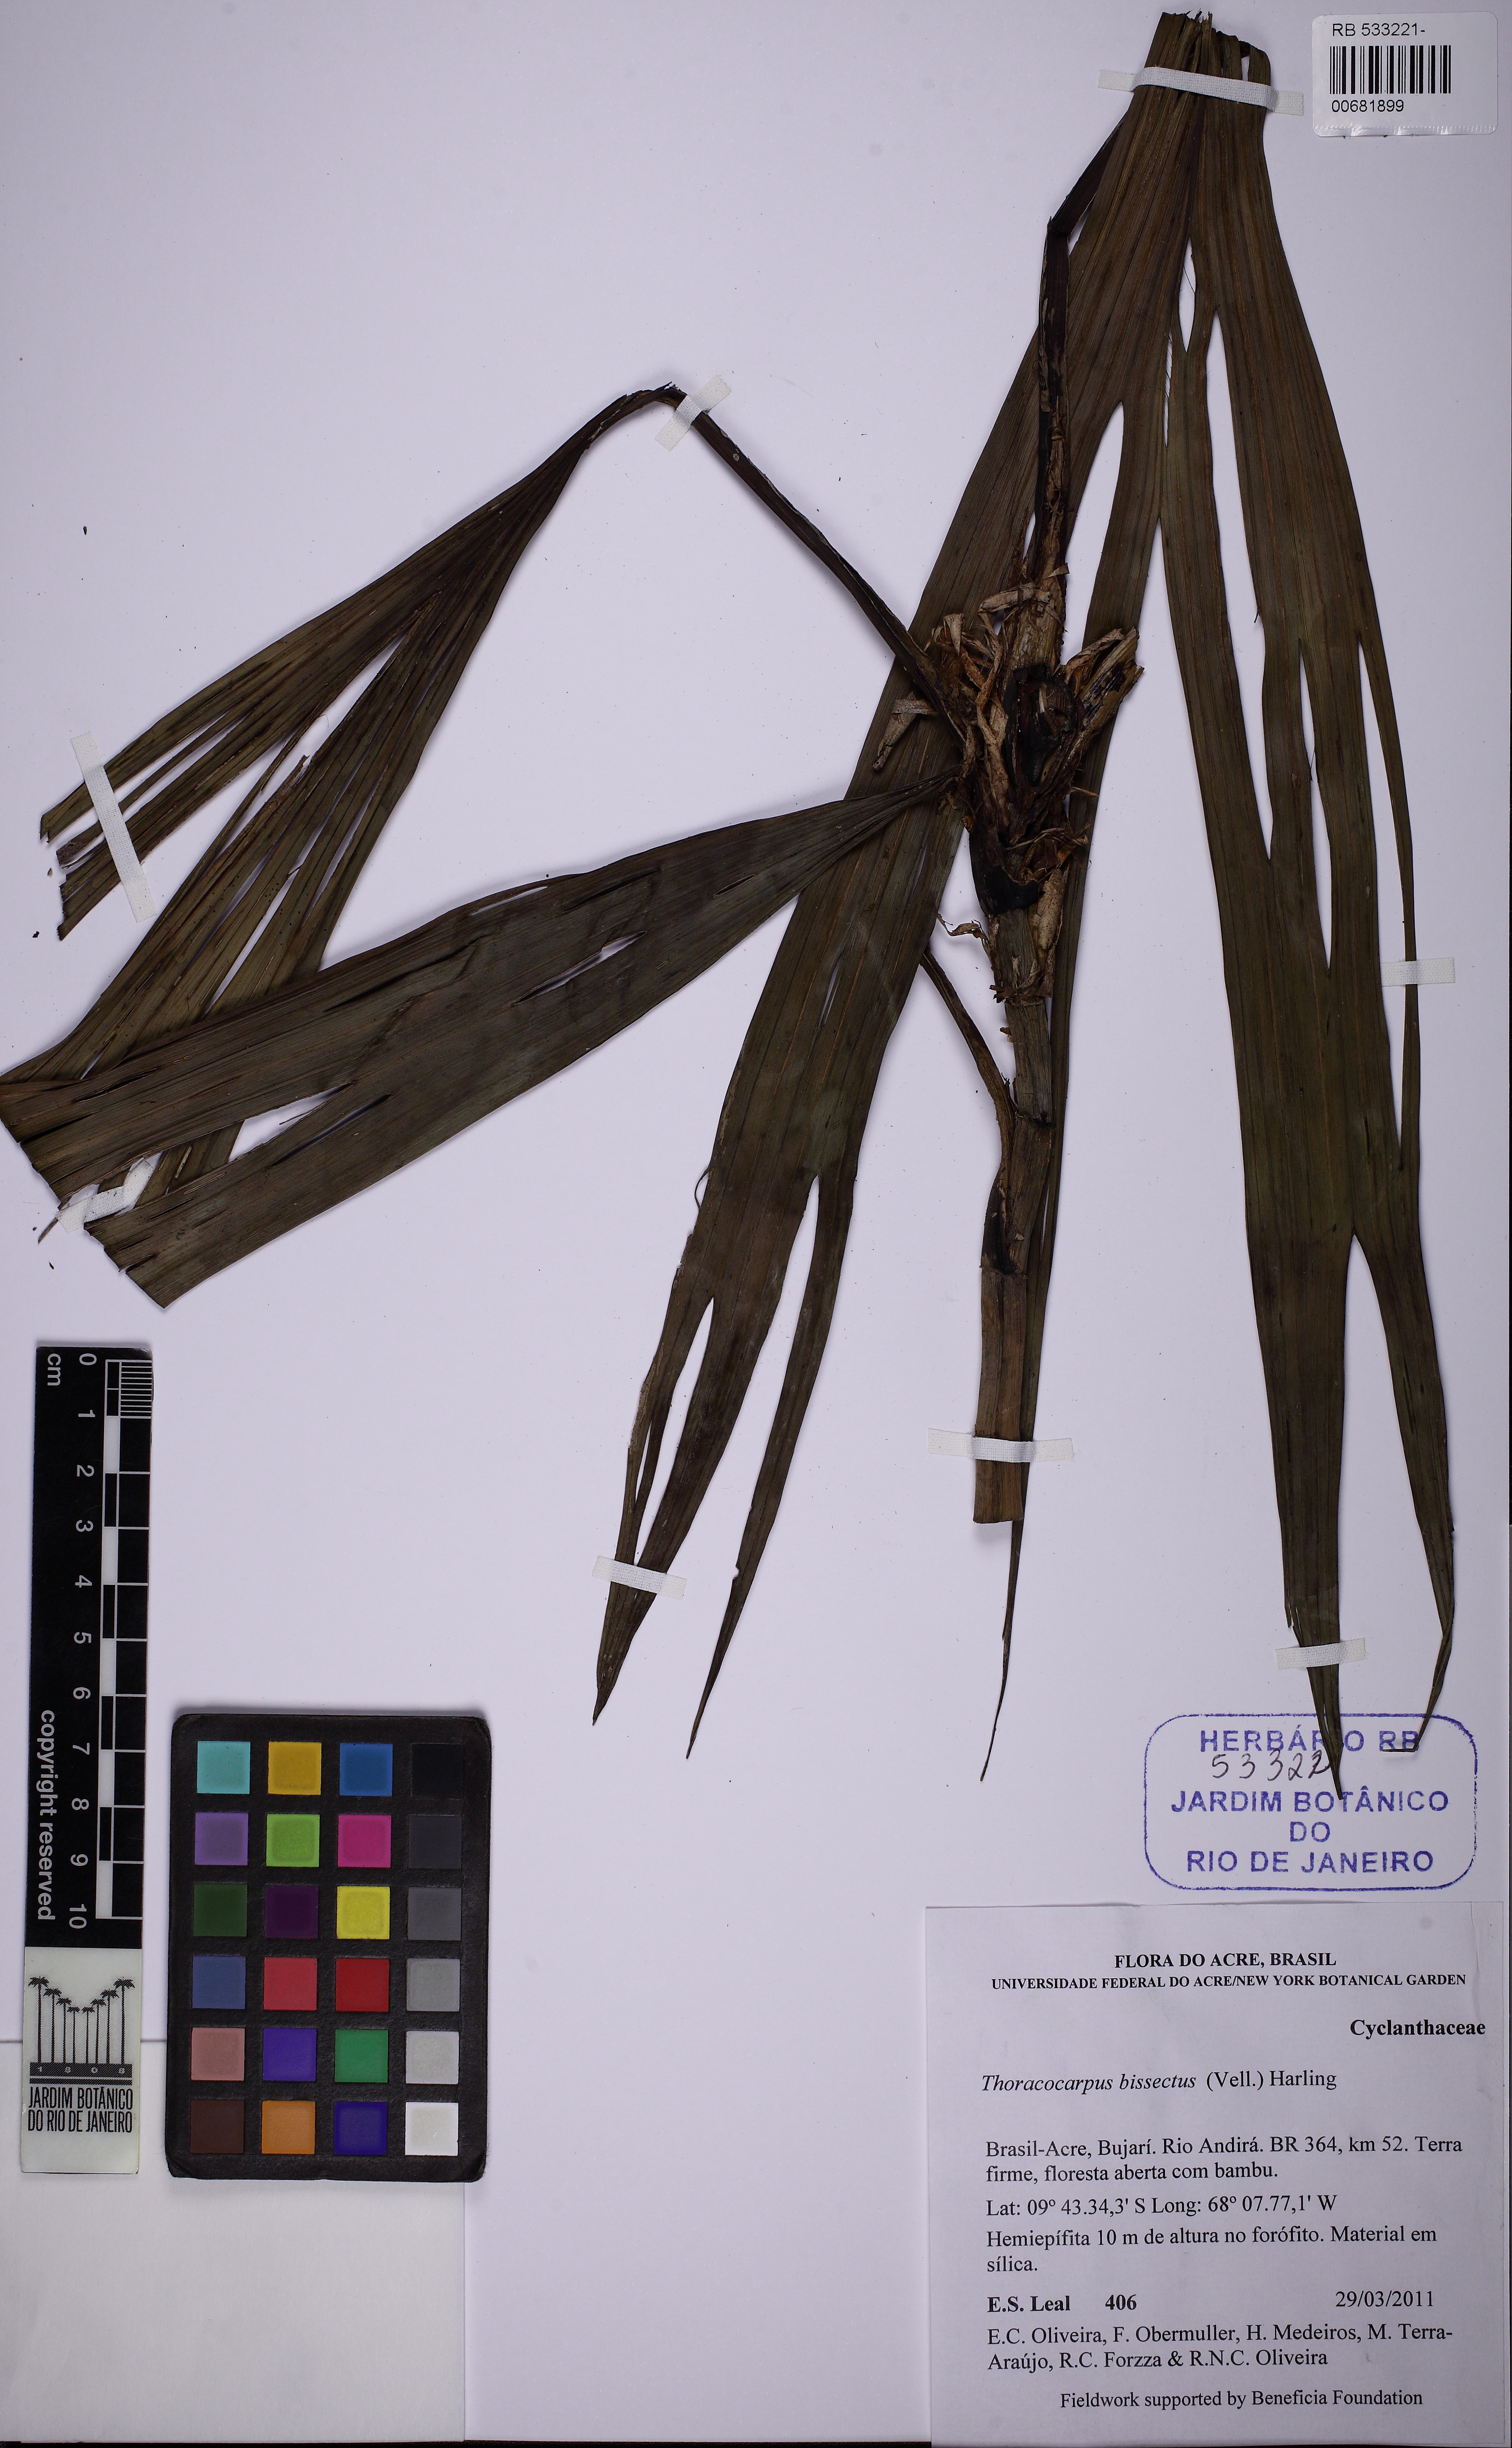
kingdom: Plantae
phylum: Tracheophyta
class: Liliopsida
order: Pandanales
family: Cyclanthaceae
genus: Thoracocarpus
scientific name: Thoracocarpus bissectus
